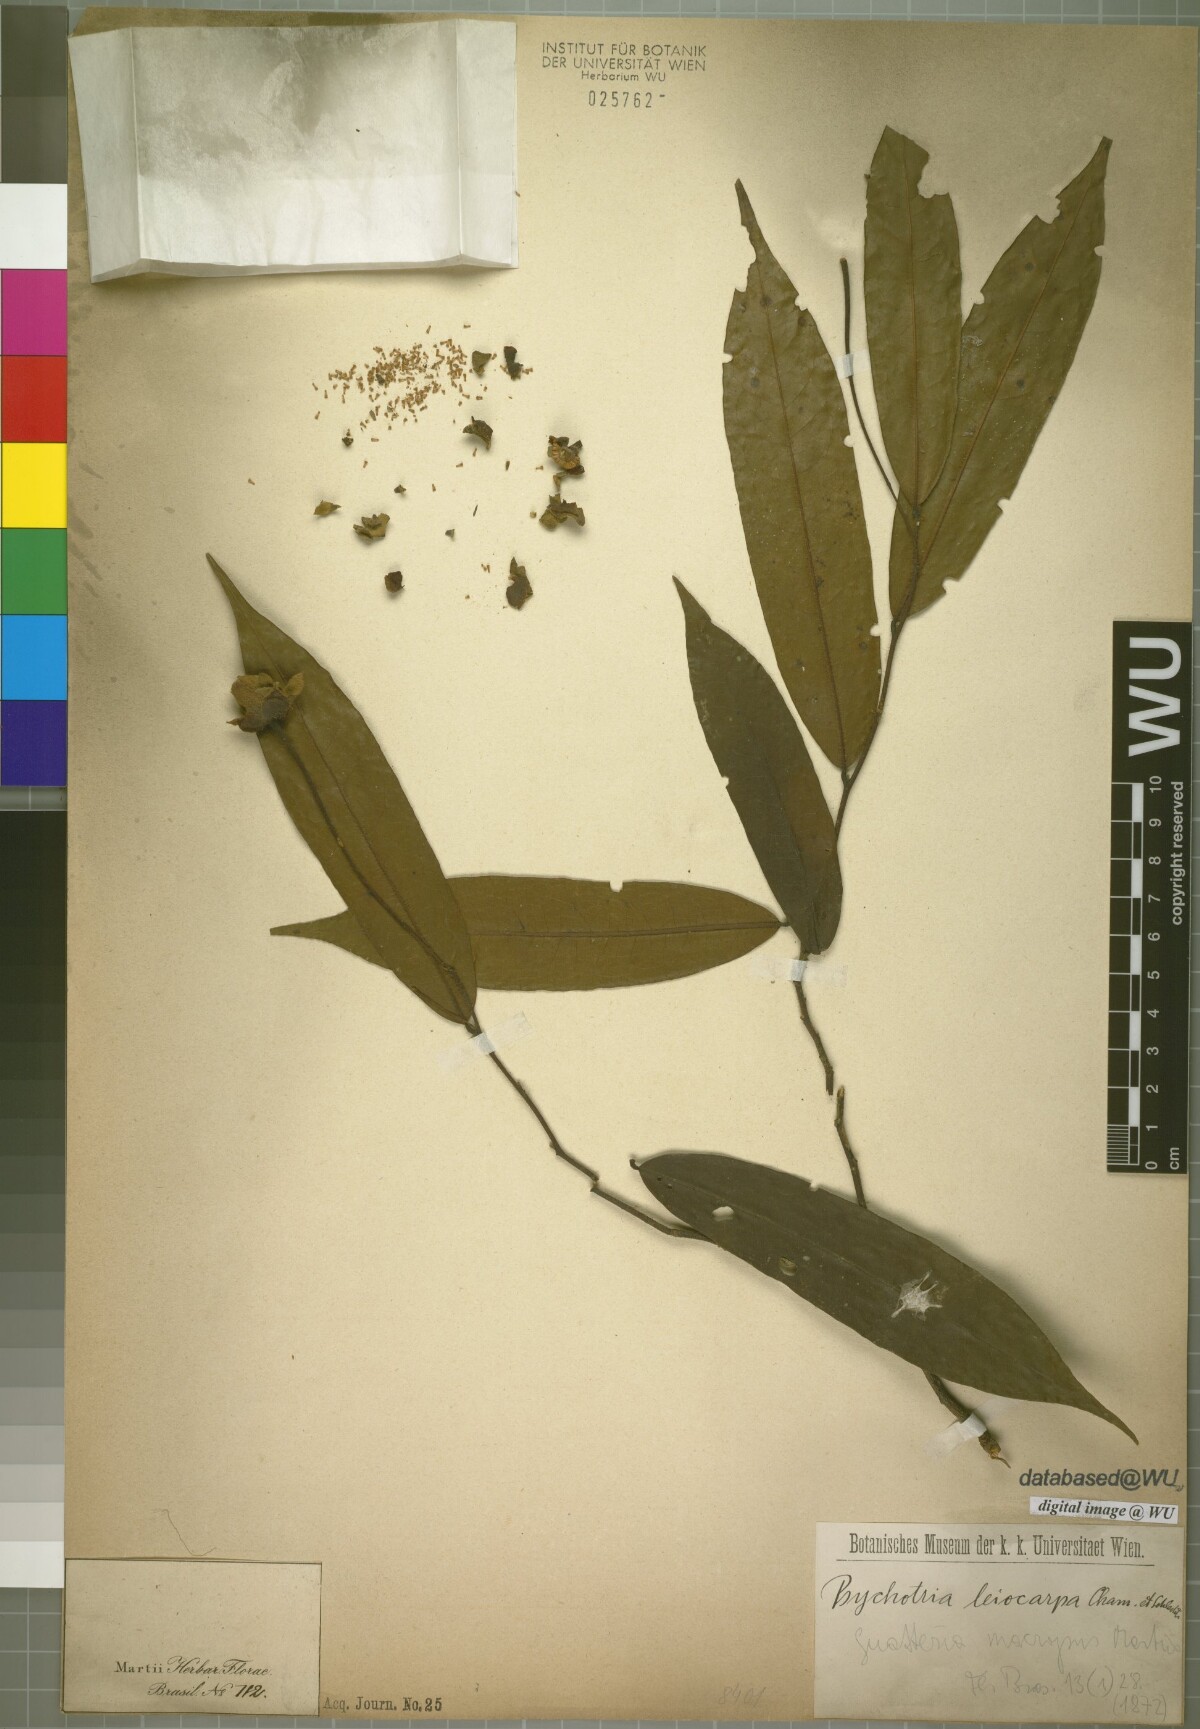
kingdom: Plantae
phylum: Tracheophyta
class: Magnoliopsida
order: Magnoliales
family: Annonaceae
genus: Guatteria
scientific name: Guatteria macropus
